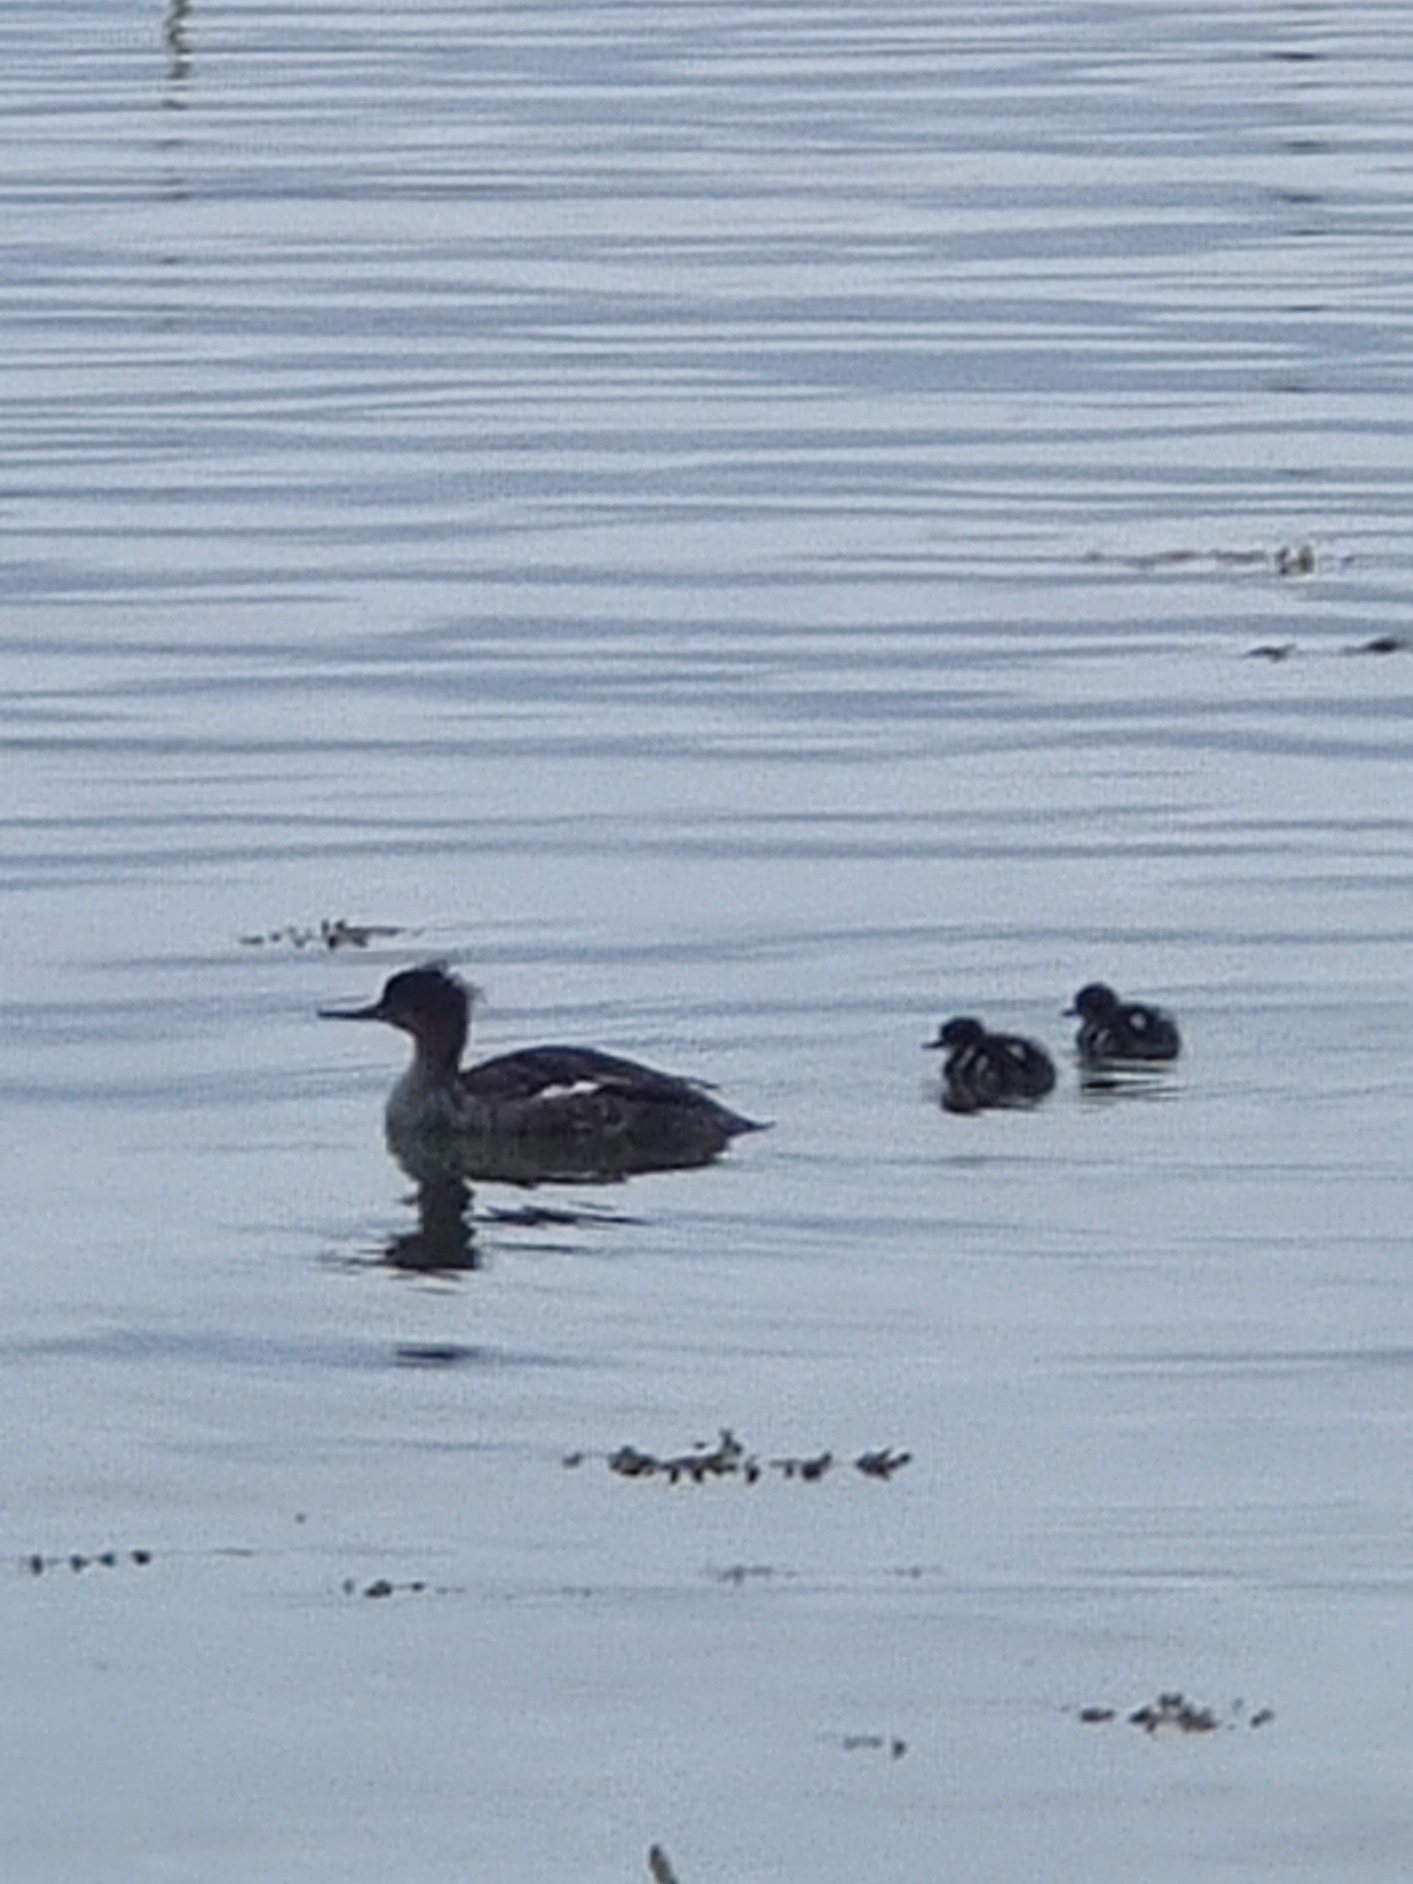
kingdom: Animalia
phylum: Chordata
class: Aves
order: Anseriformes
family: Anatidae
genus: Mergus
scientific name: Mergus serrator
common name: Toppet skallesluger
